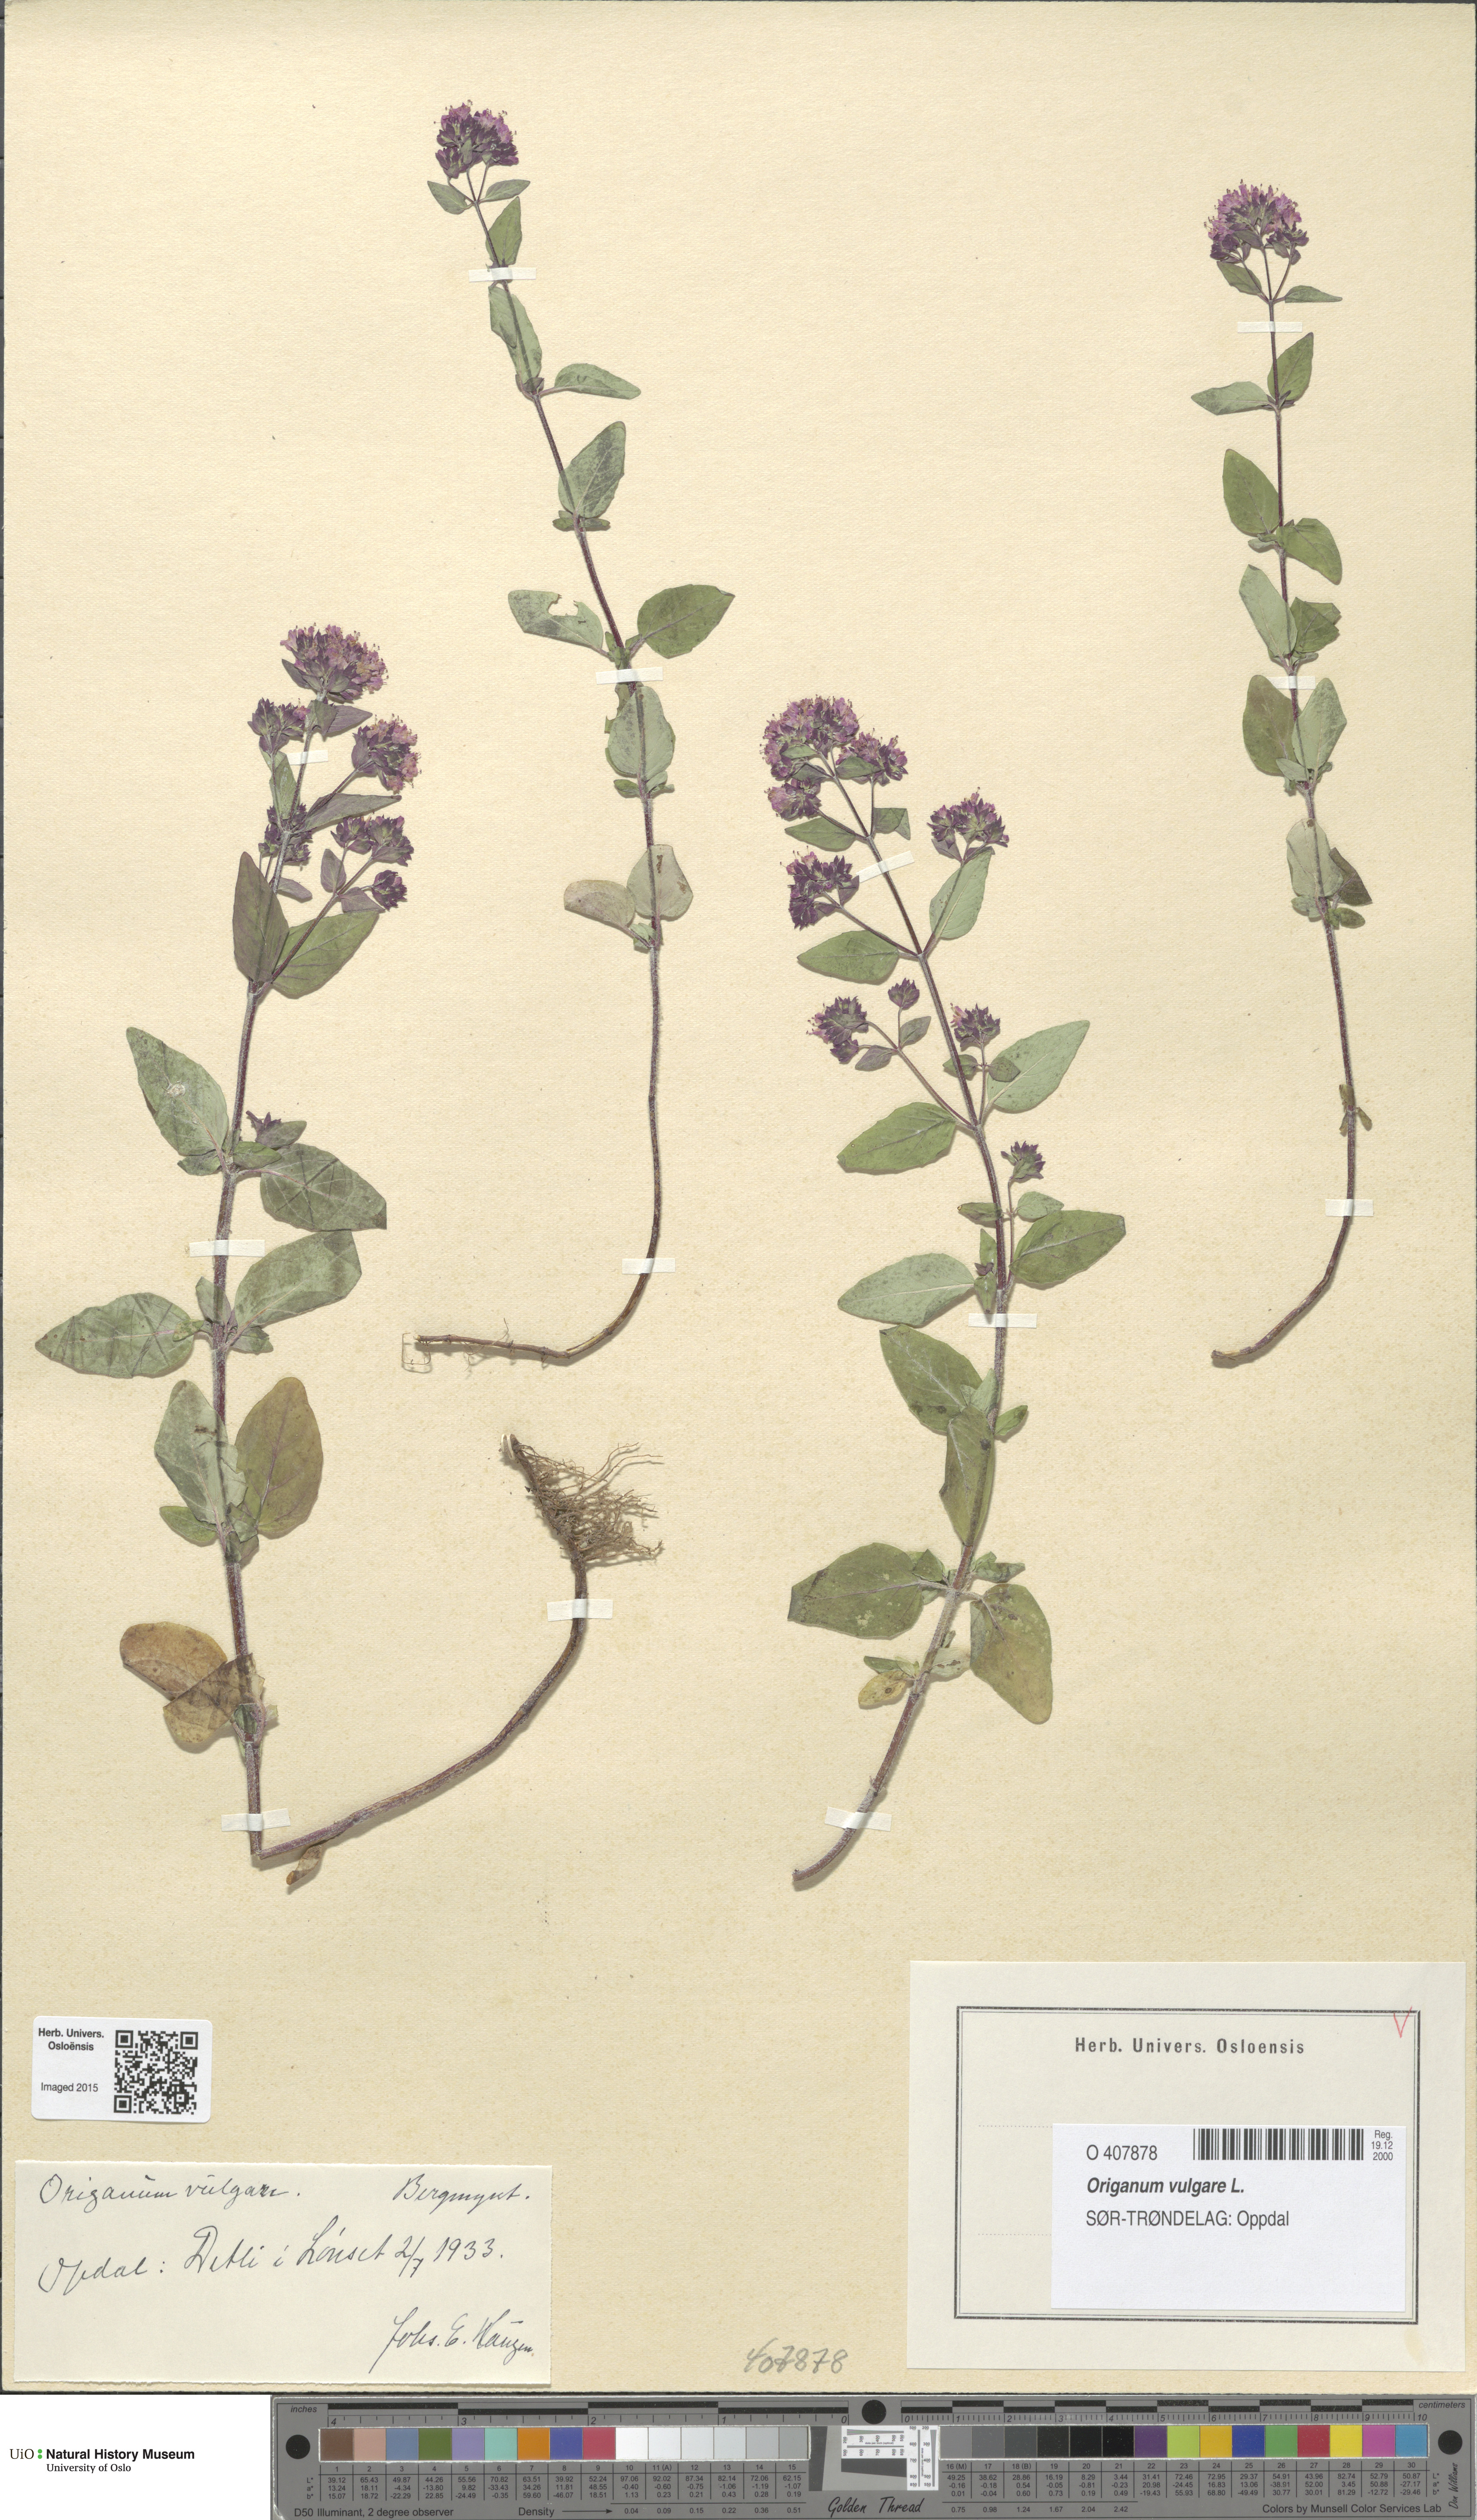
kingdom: Plantae
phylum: Tracheophyta
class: Magnoliopsida
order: Lamiales
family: Lamiaceae
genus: Origanum
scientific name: Origanum vulgare
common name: Wild marjoram
